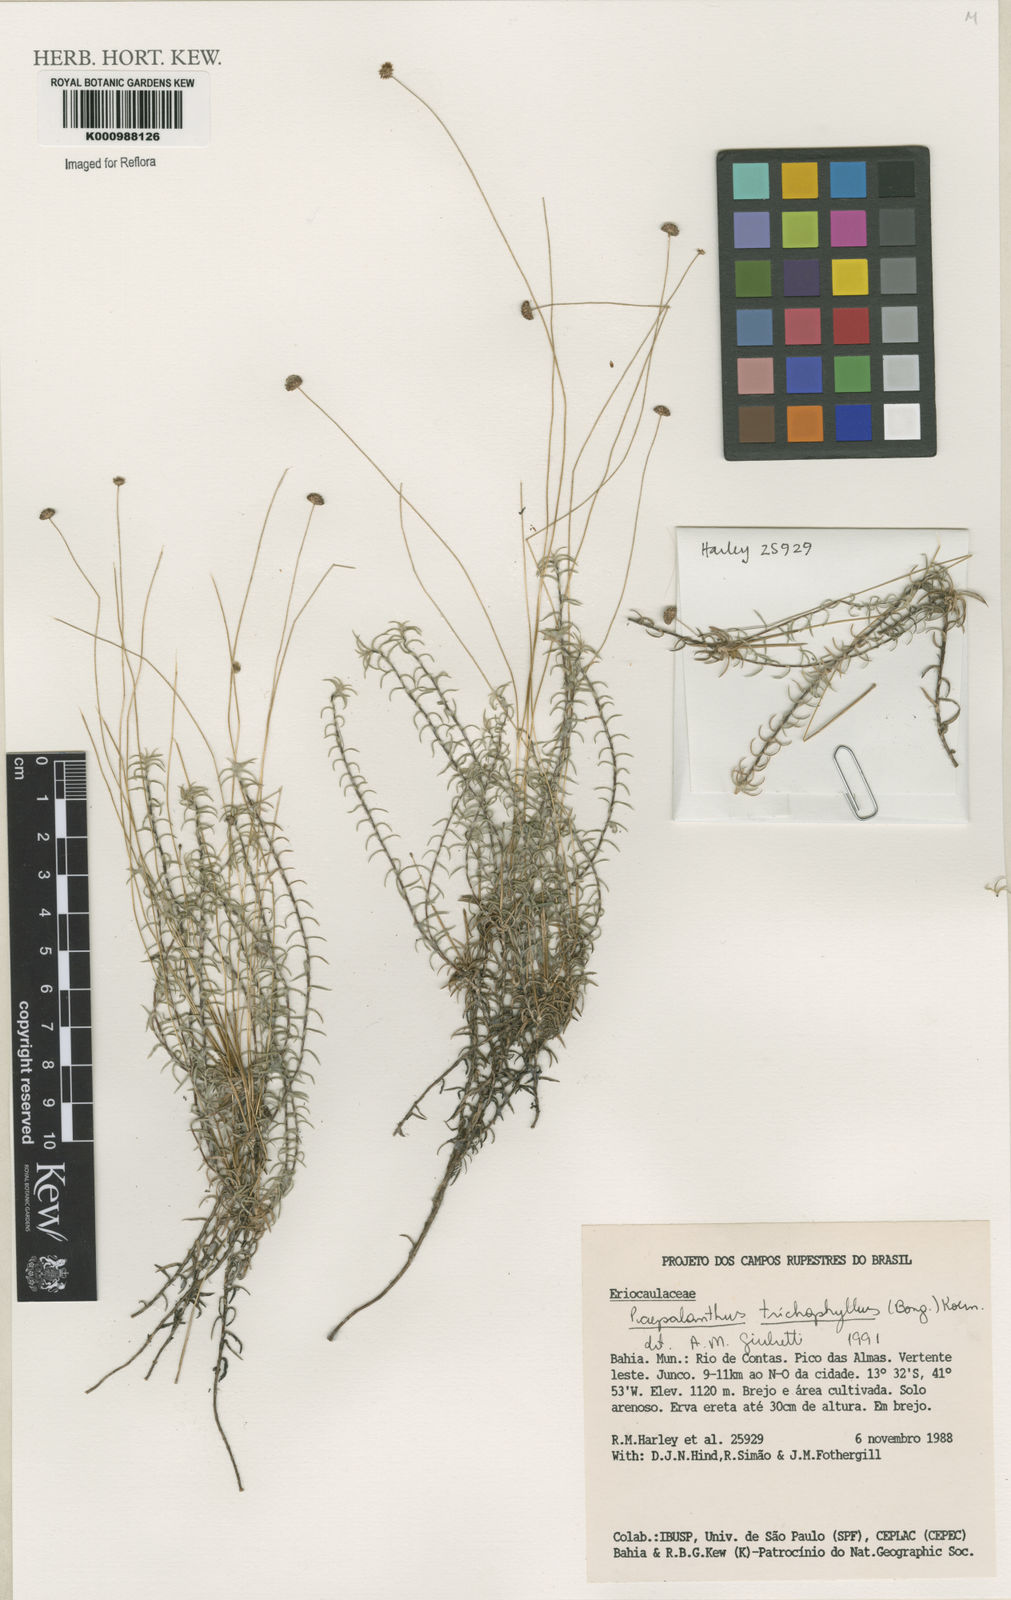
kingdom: Plantae
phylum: Tracheophyta
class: Liliopsida
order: Poales
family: Eriocaulaceae
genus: Paepalanthus
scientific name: Paepalanthus
